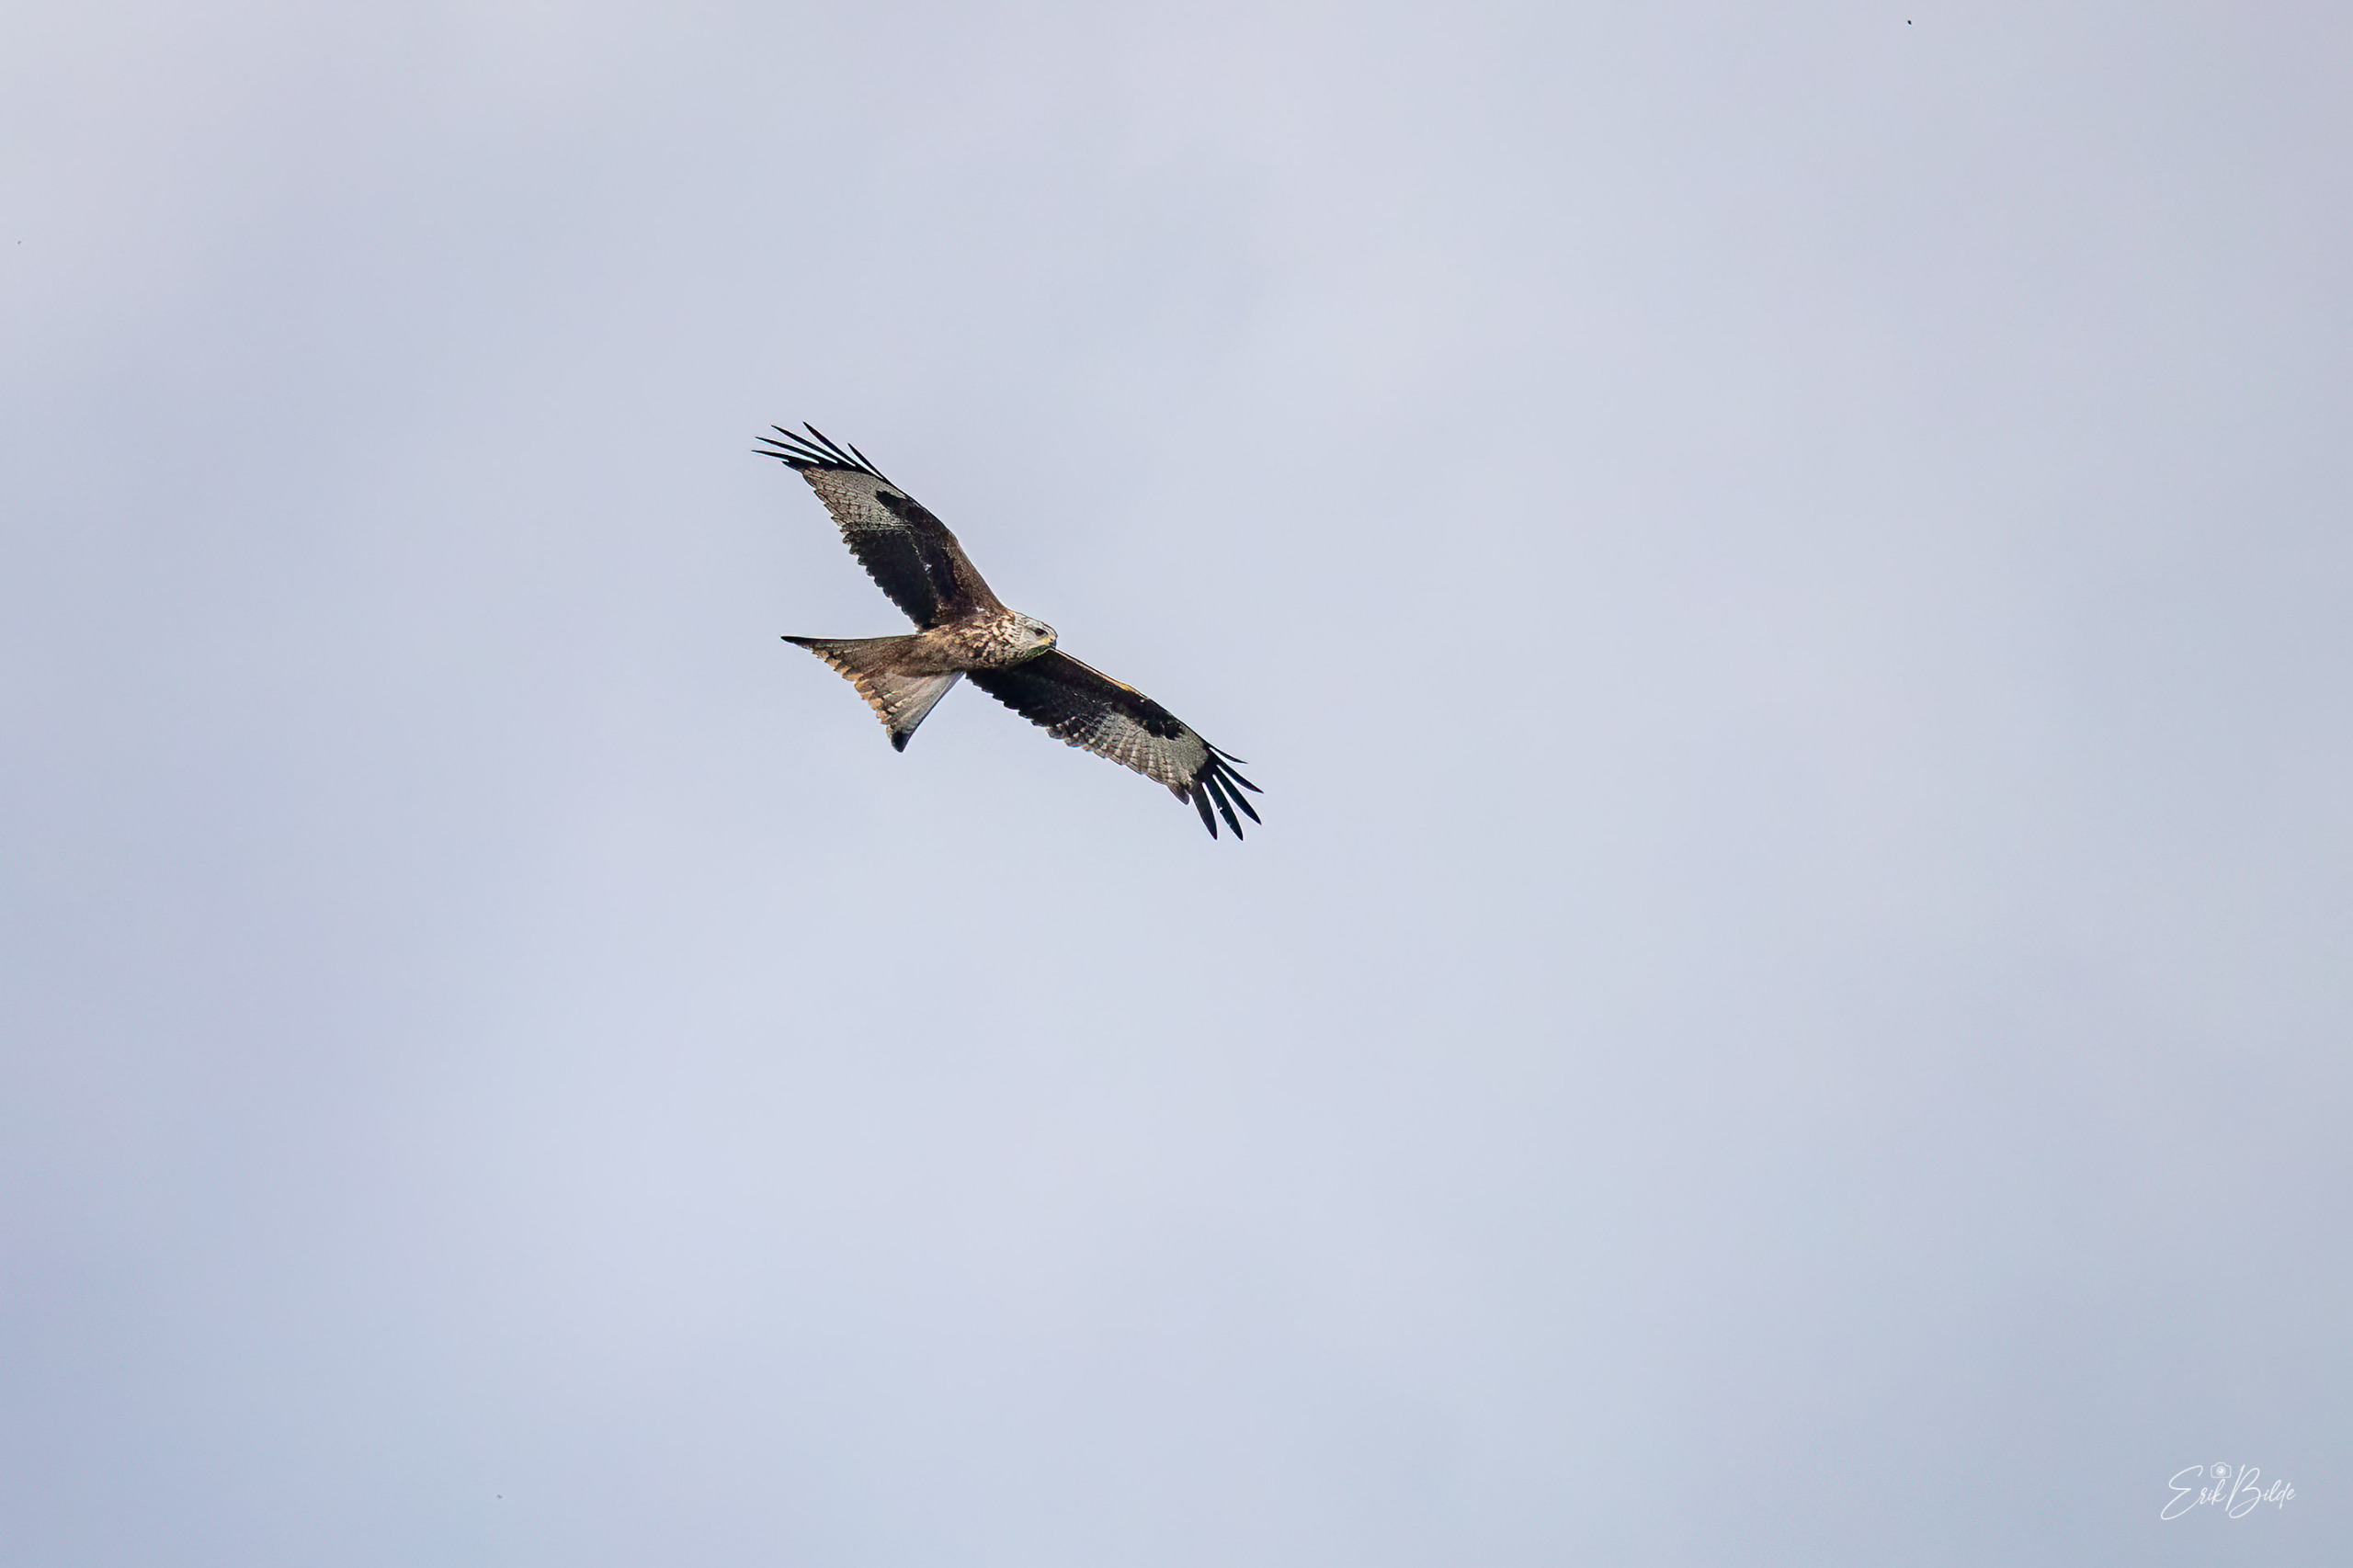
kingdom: Animalia
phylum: Chordata
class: Aves
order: Accipitriformes
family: Accipitridae
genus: Milvus
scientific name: Milvus milvus
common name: Rød glente
